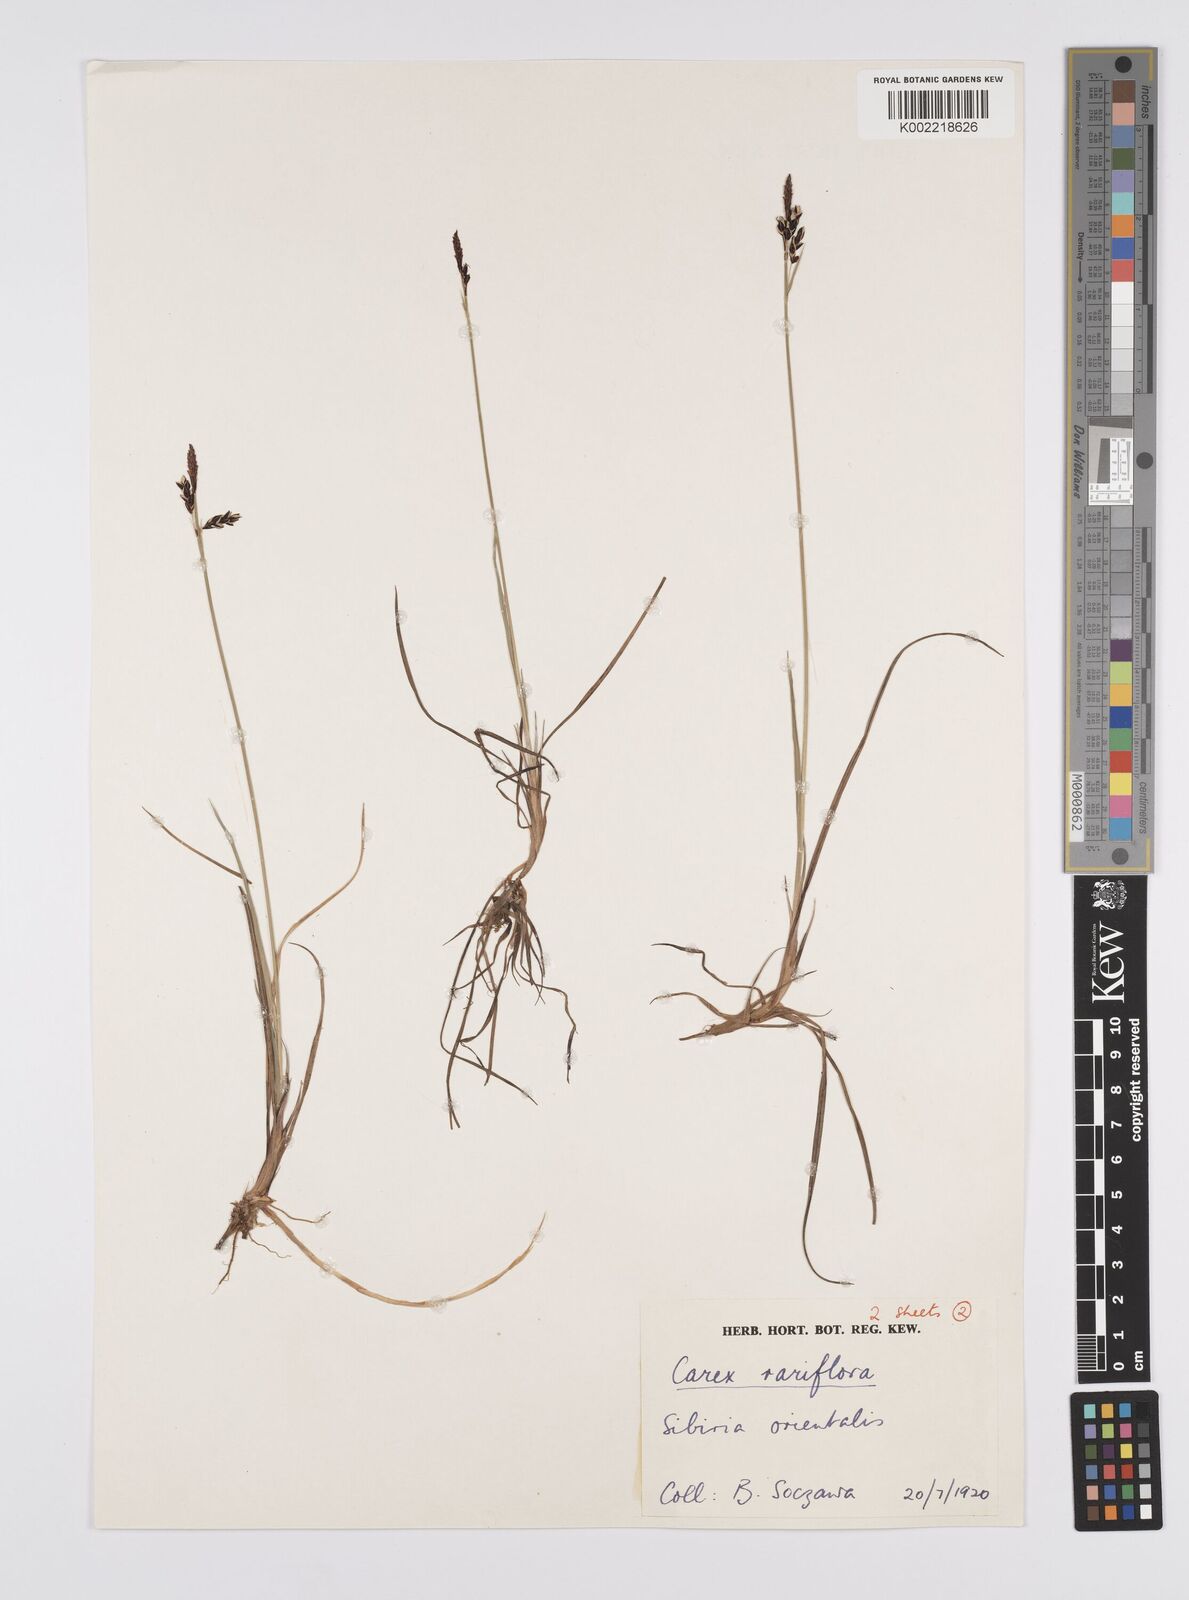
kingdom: Plantae
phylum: Tracheophyta
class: Liliopsida
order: Poales
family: Cyperaceae
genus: Carex
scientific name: Carex rariflora
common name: Loose-flowered alpine sedge
